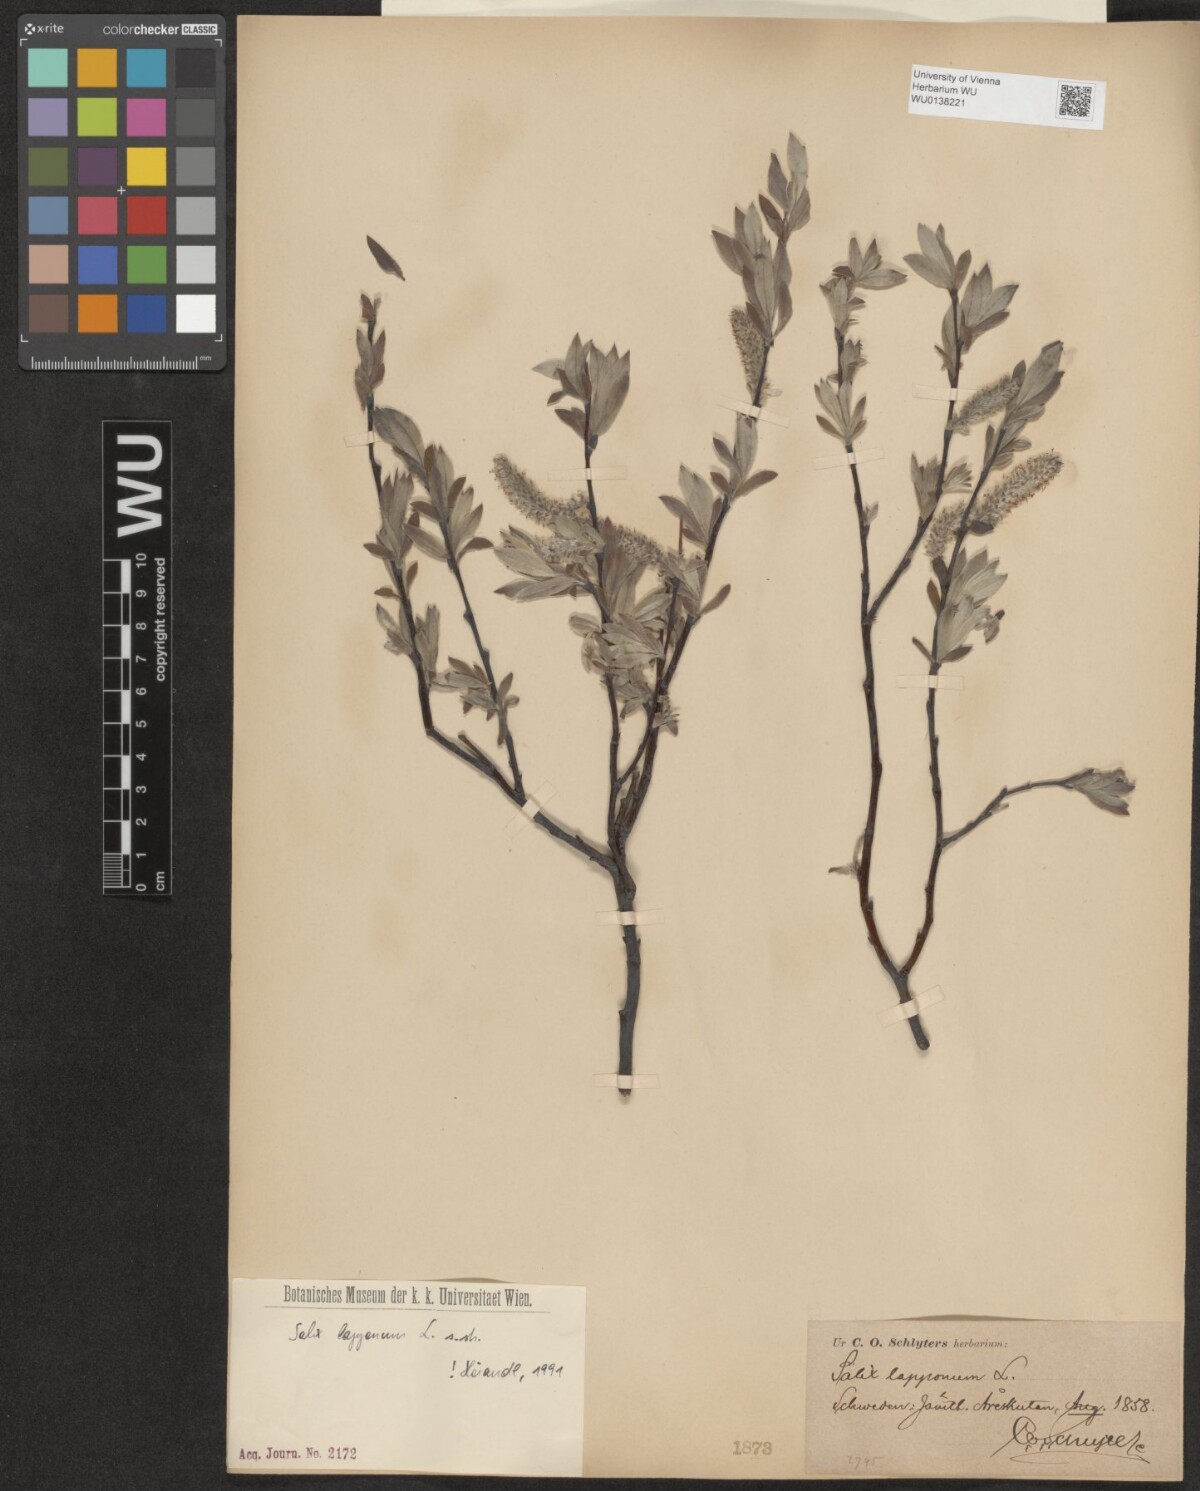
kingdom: Plantae
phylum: Tracheophyta
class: Magnoliopsida
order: Malpighiales
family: Salicaceae
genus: Salix
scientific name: Salix lapponum
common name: Downy willow
